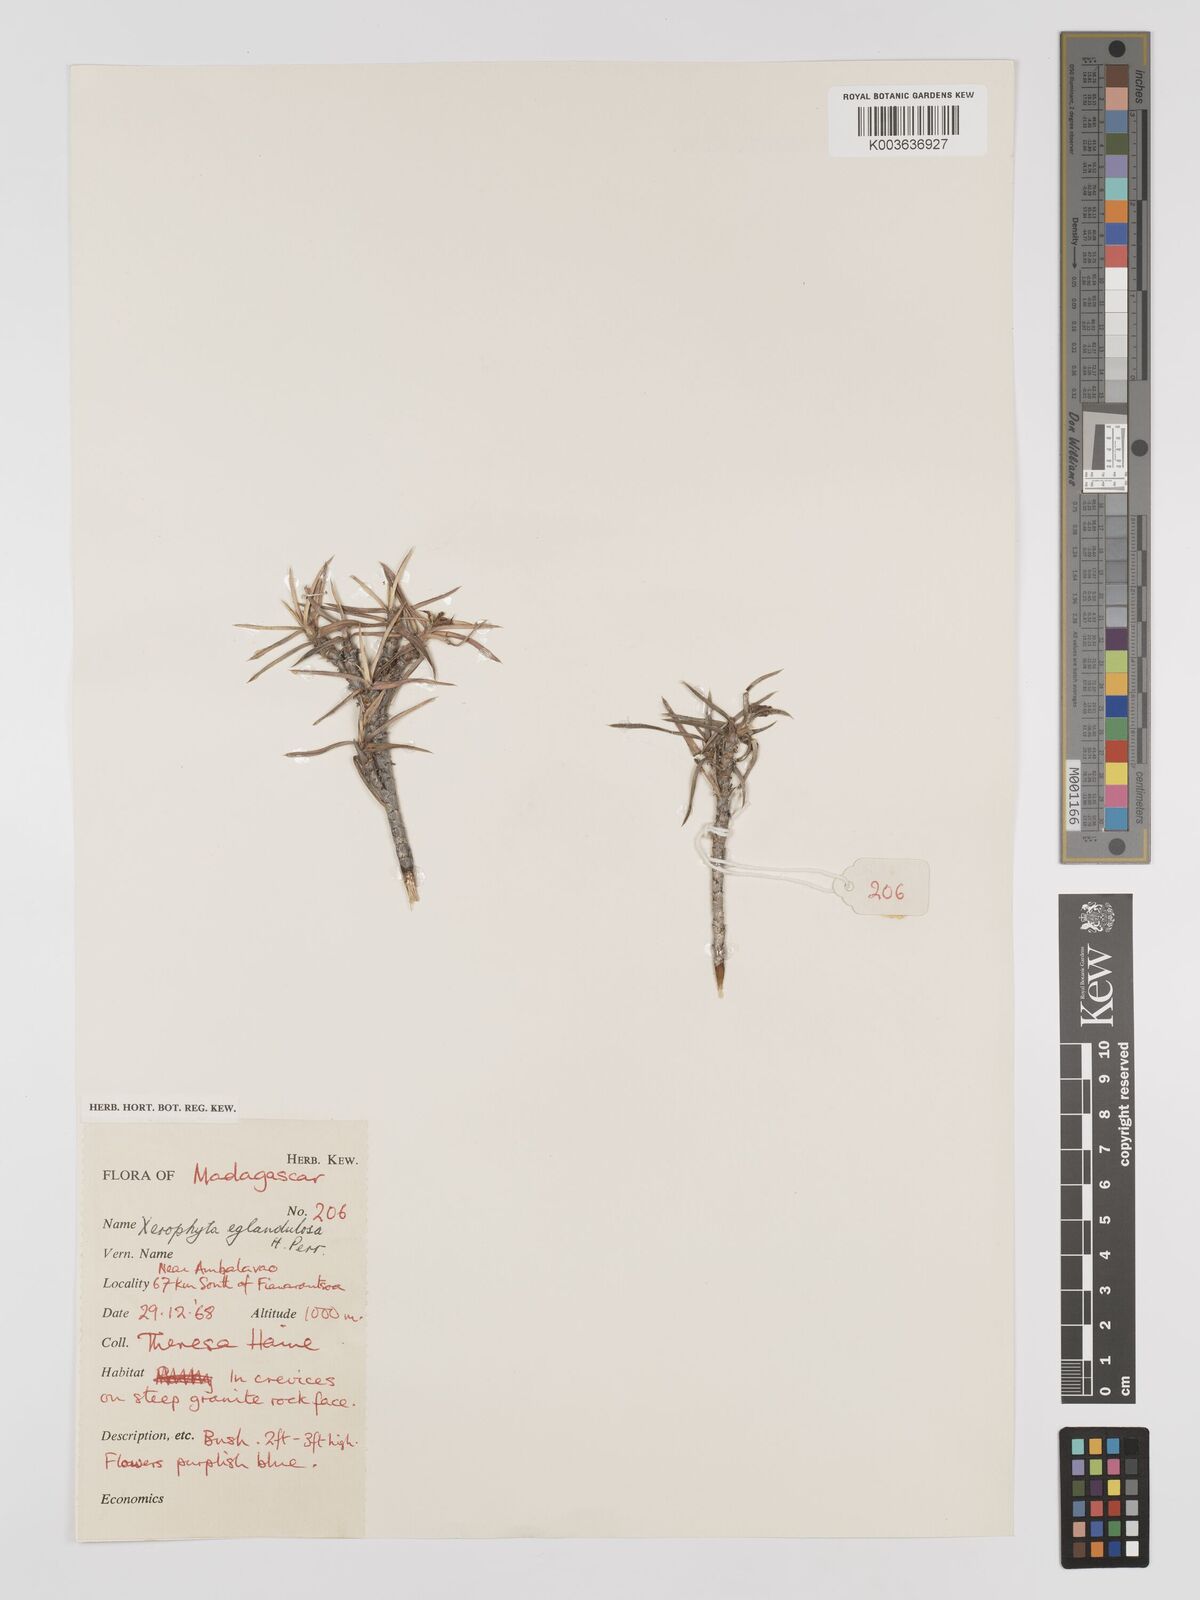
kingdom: Plantae
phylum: Tracheophyta
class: Liliopsida
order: Pandanales
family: Velloziaceae
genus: Xerophyta
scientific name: Xerophyta eglandulosa
